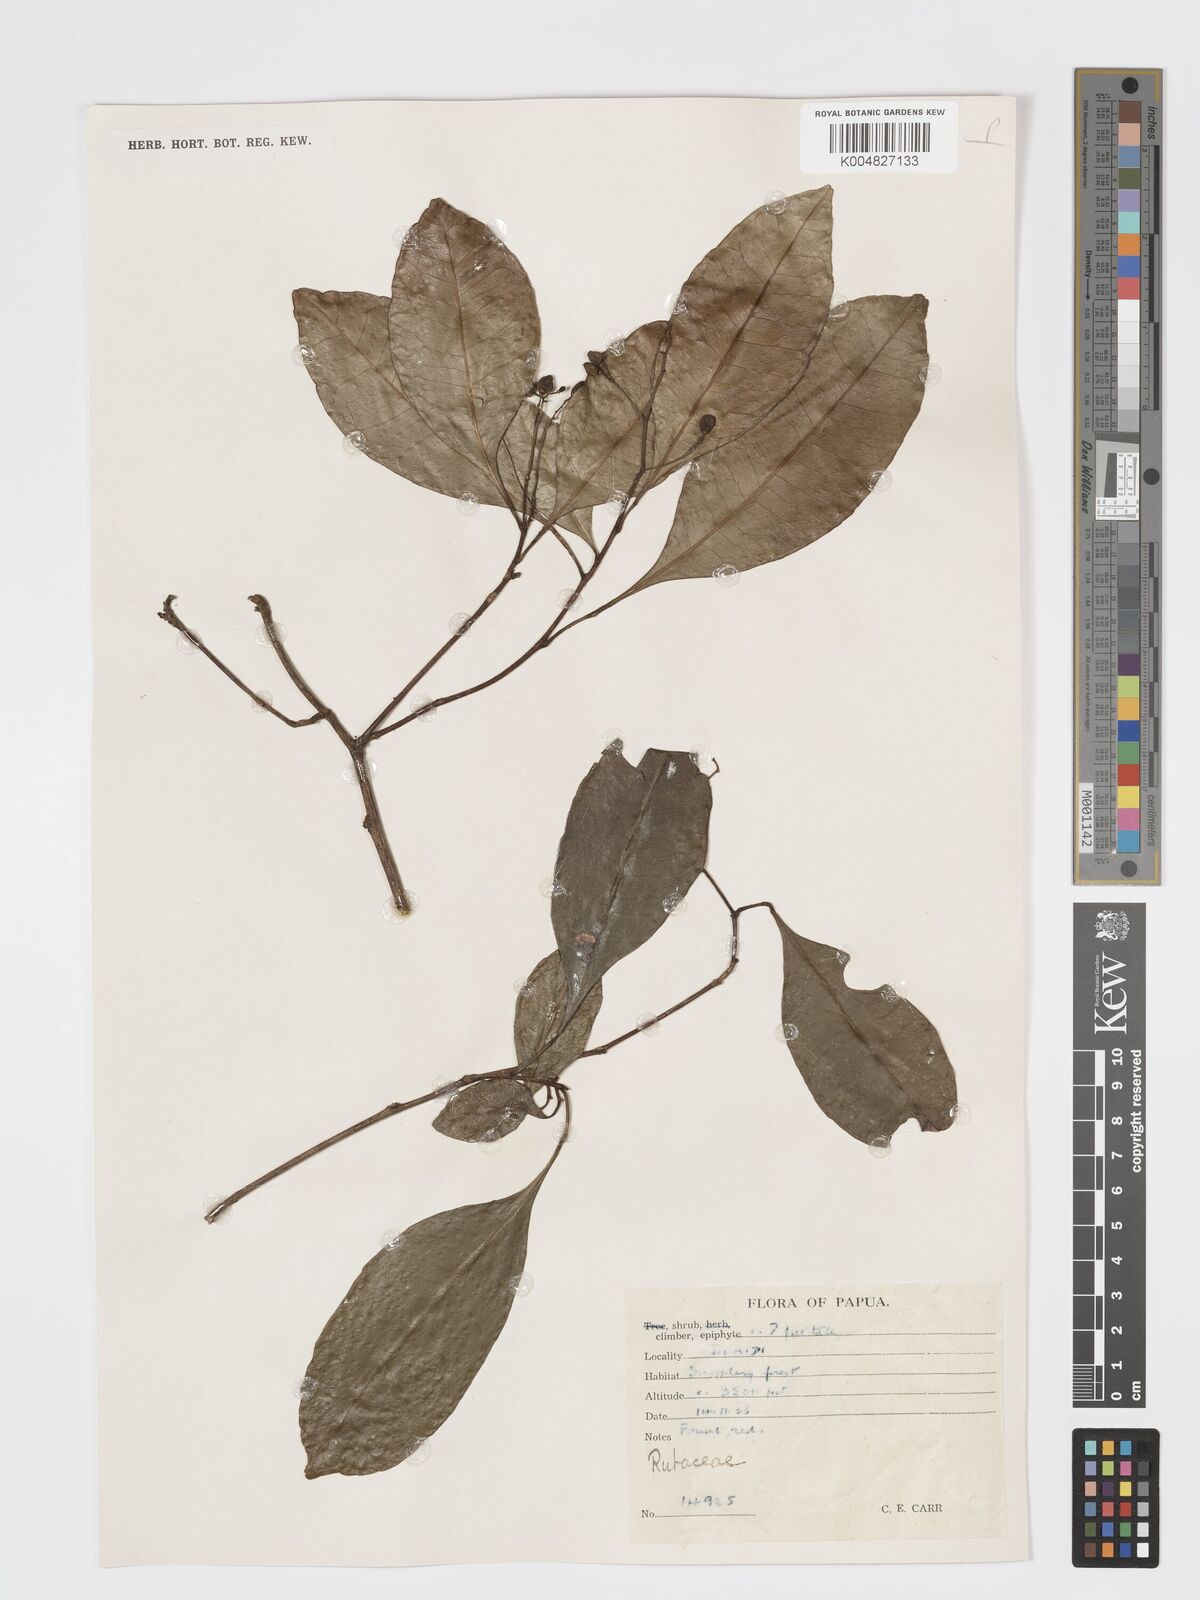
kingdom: Plantae
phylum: Tracheophyta
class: Magnoliopsida
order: Sapindales
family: Rutaceae
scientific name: Rutaceae
